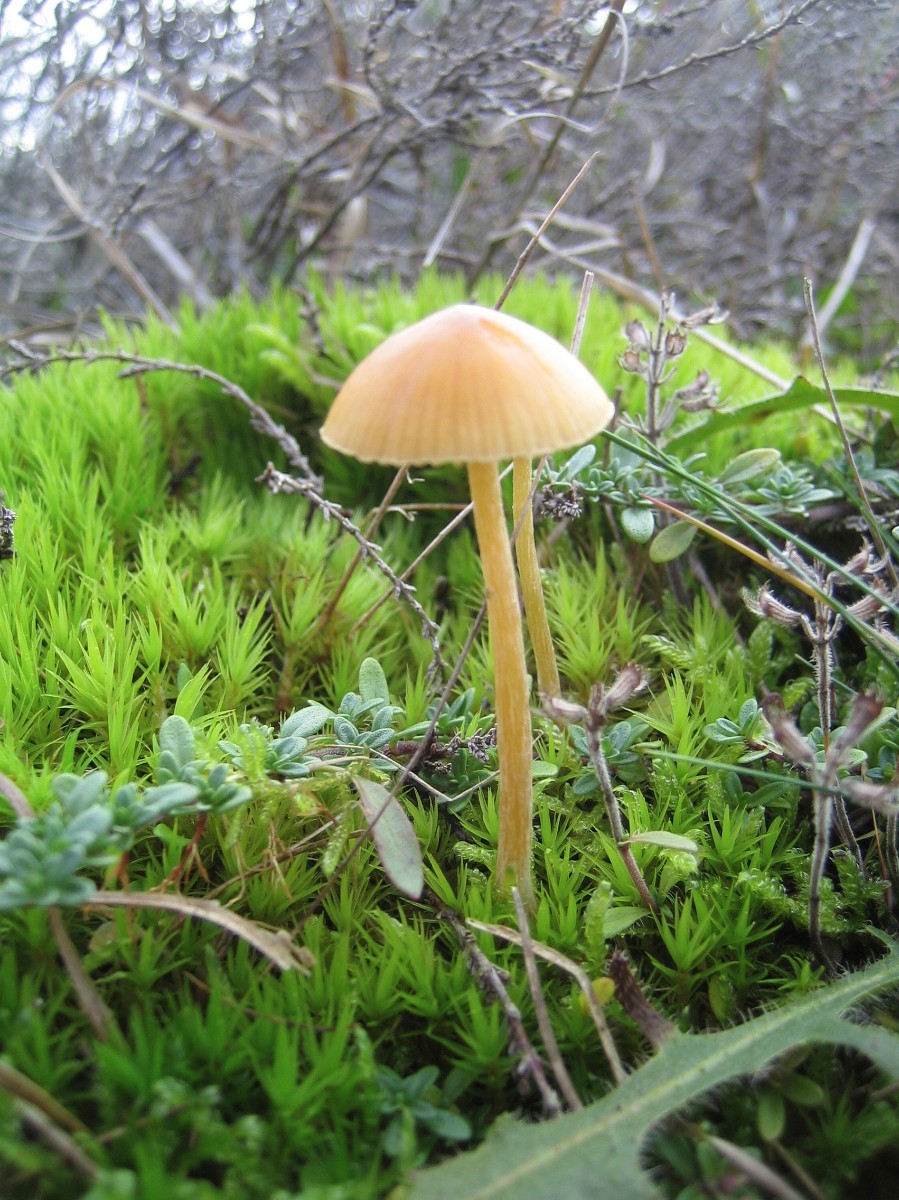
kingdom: Fungi
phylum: Basidiomycota
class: Agaricomycetes
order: Agaricales
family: Hymenogastraceae
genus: Galerina
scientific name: Galerina
